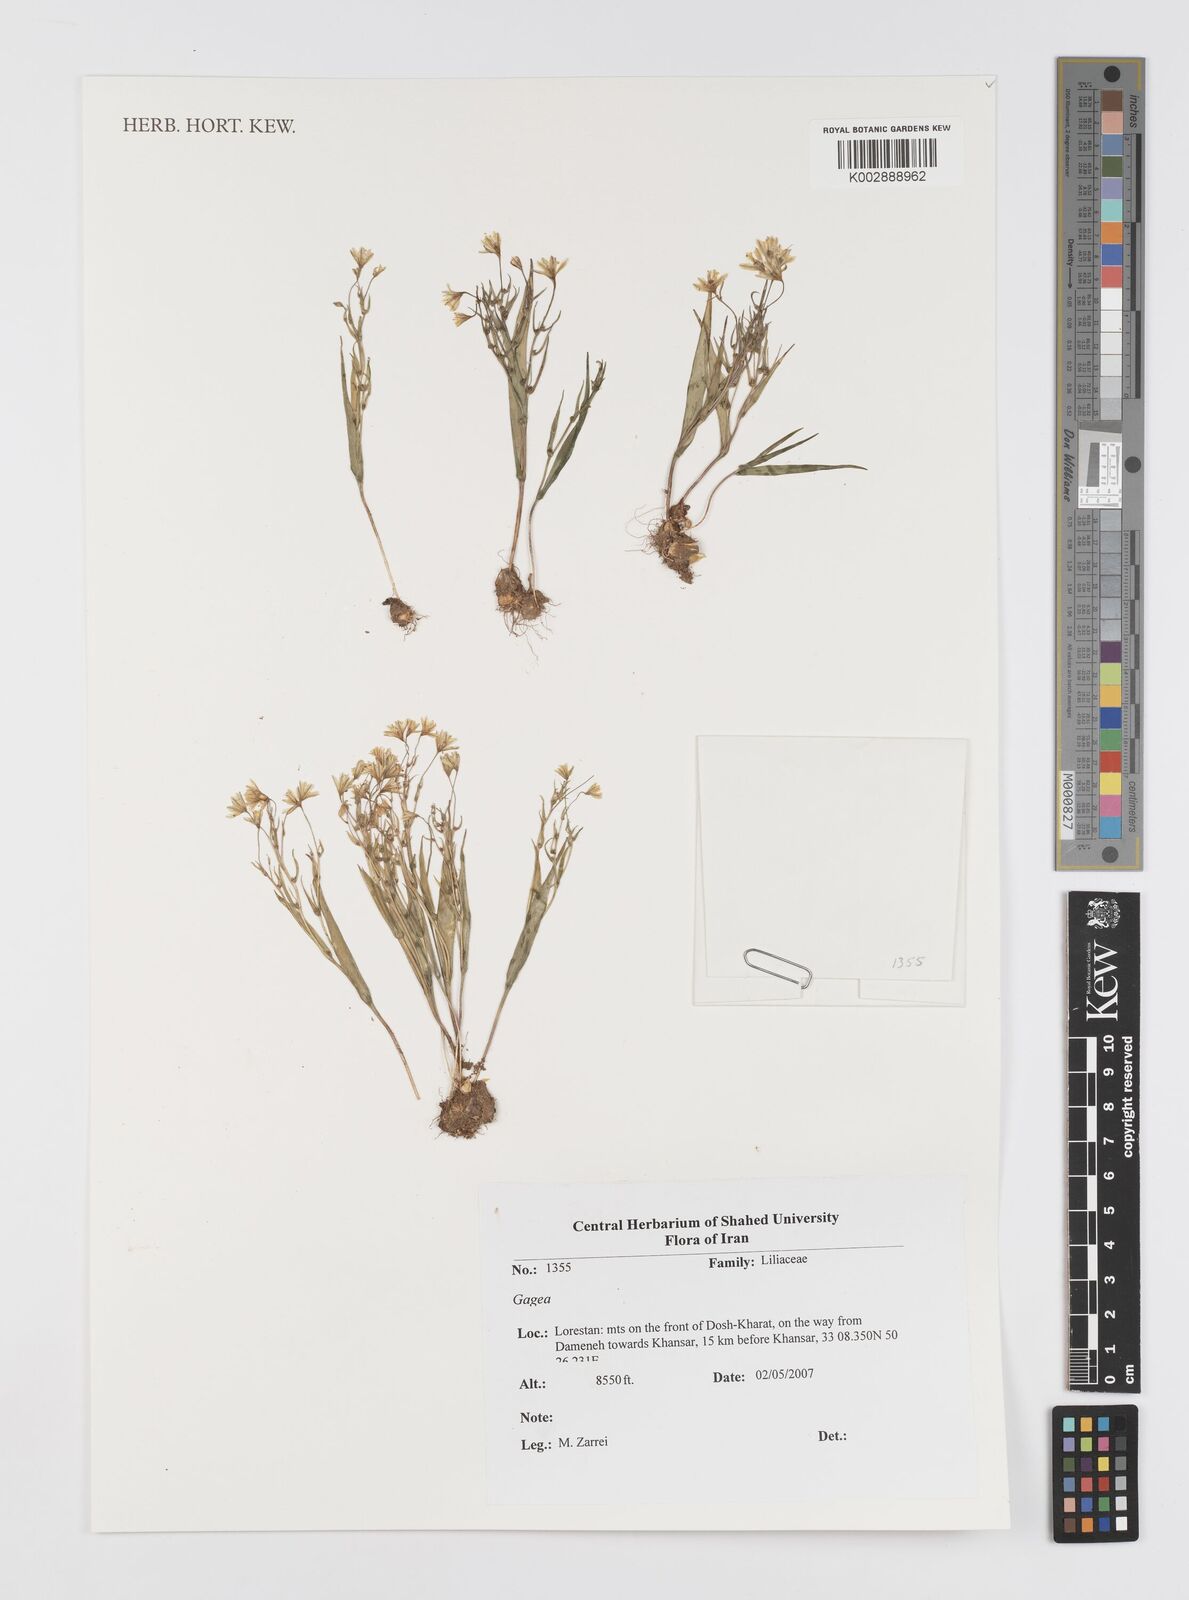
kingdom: Plantae
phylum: Tracheophyta
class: Liliopsida
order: Liliales
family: Liliaceae
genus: Gagea
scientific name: Gagea
